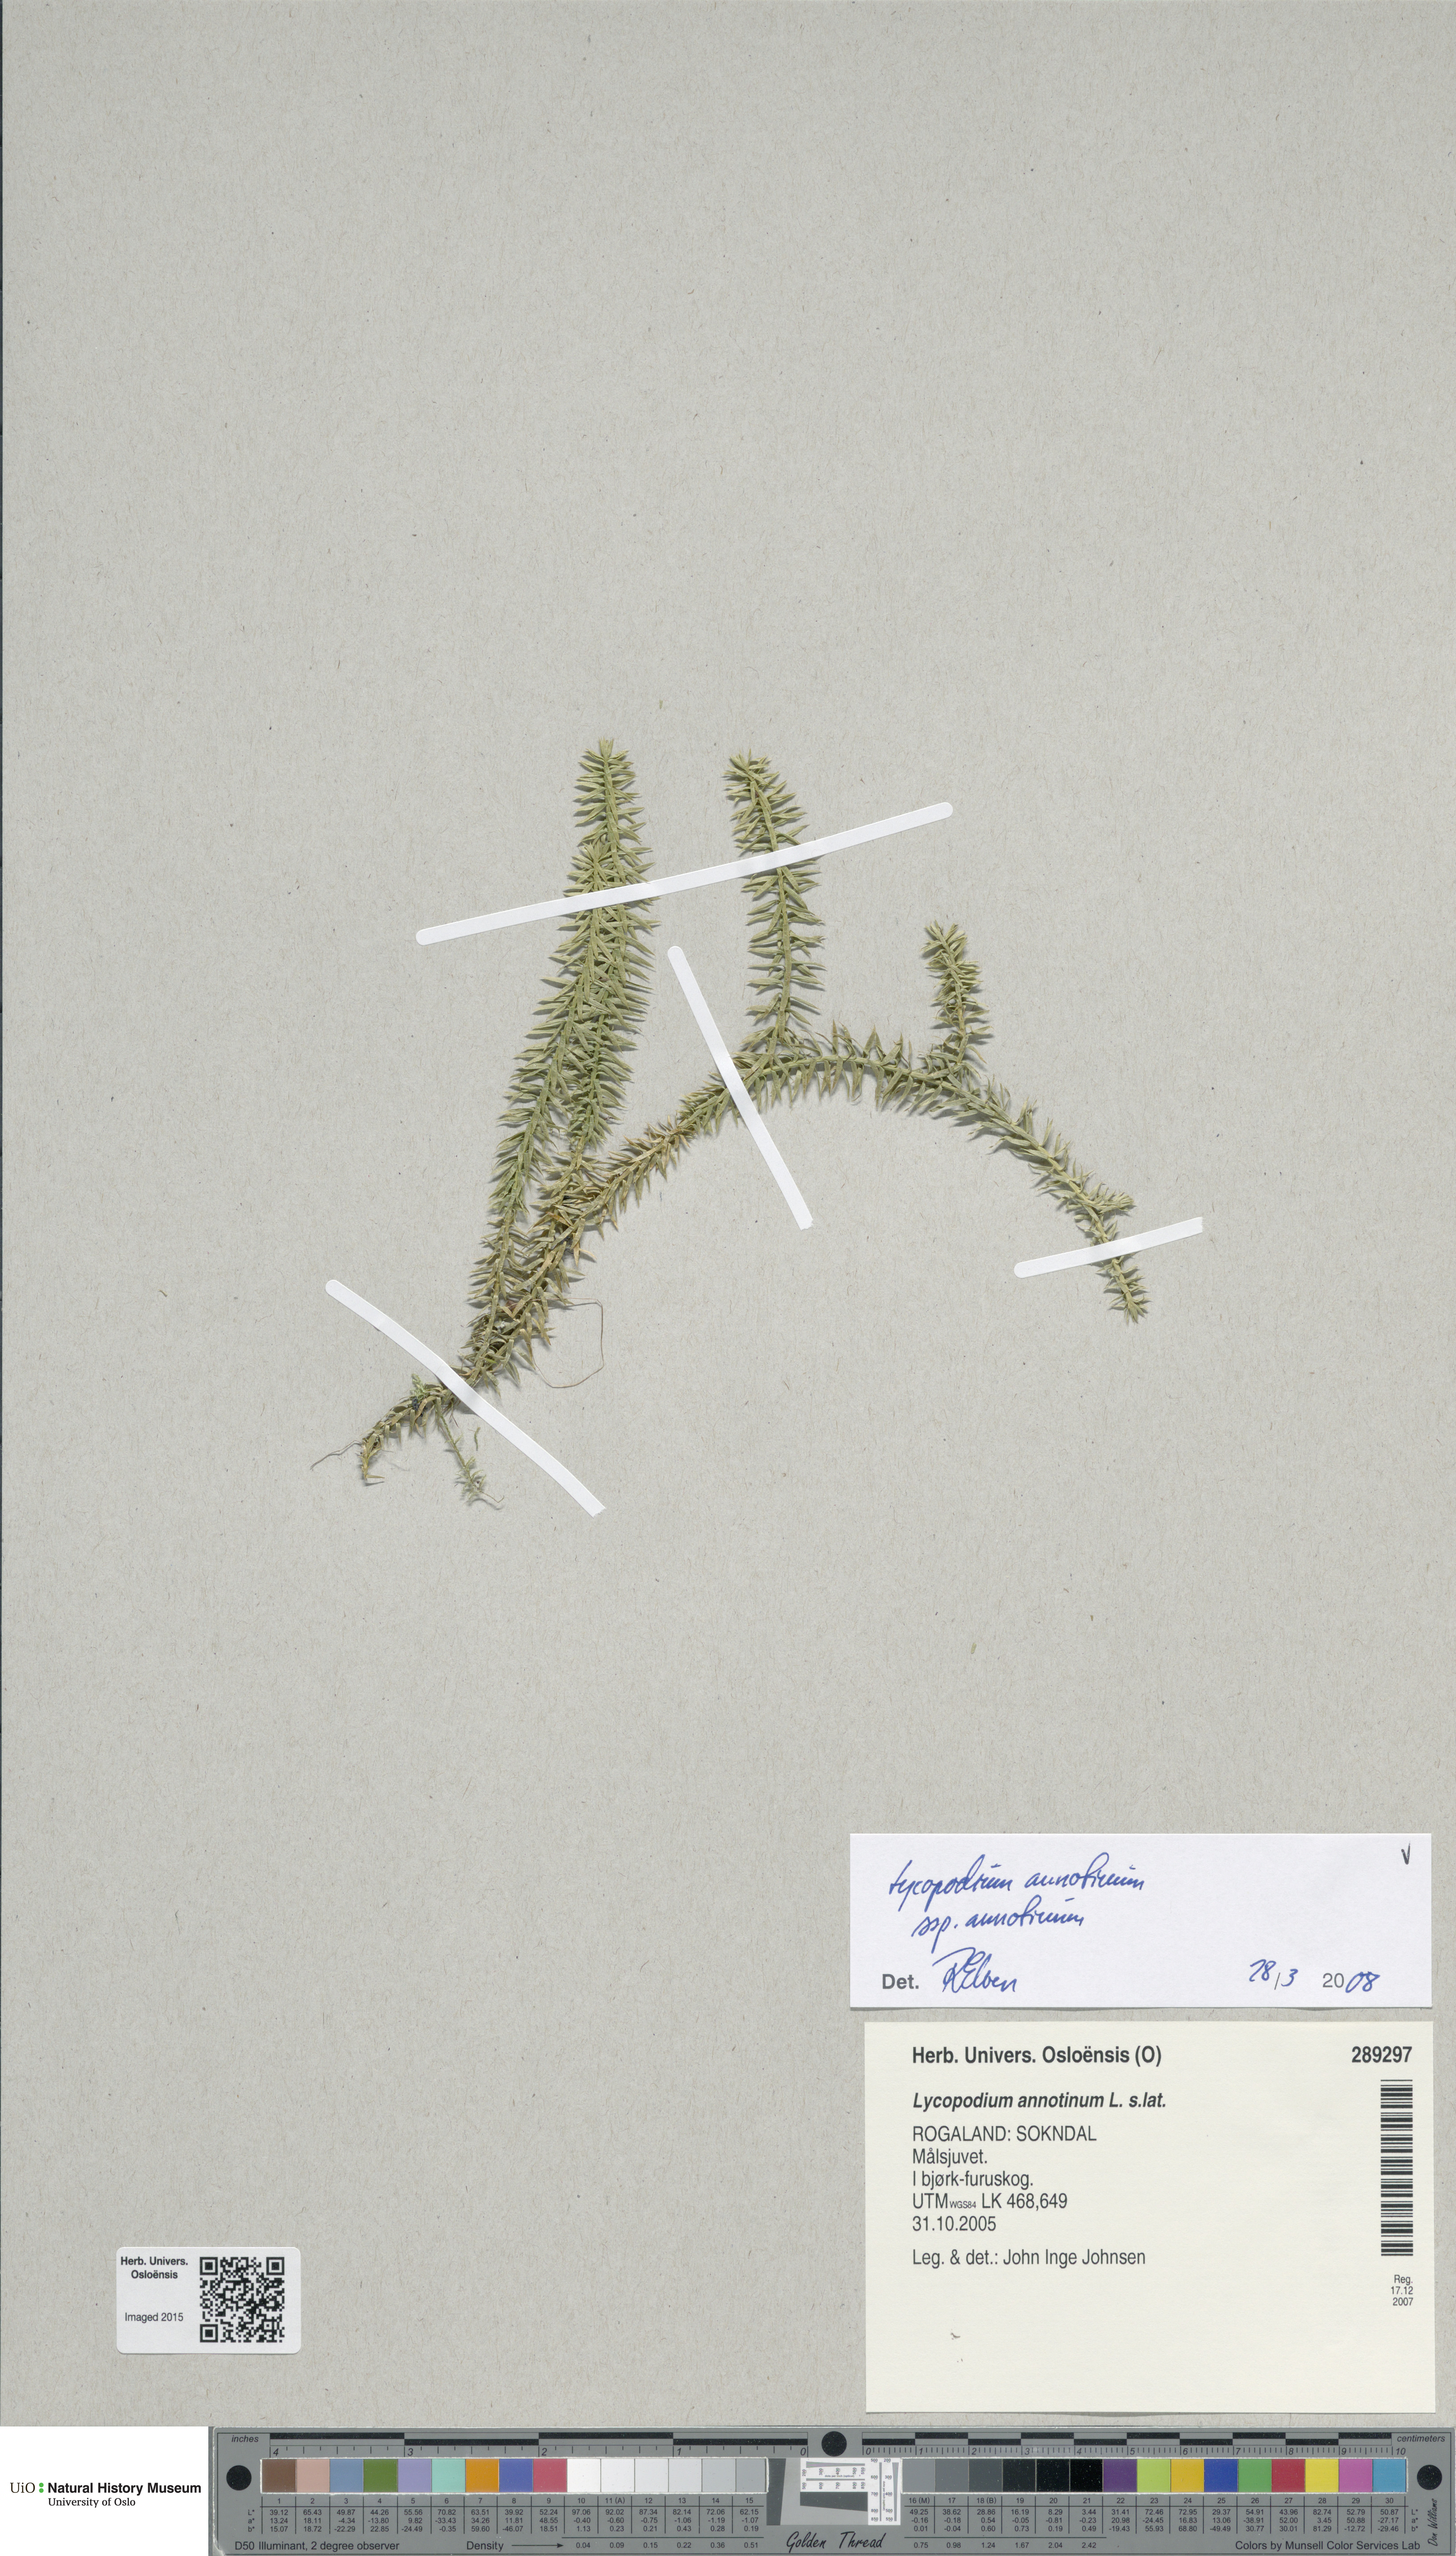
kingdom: Plantae
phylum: Tracheophyta
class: Lycopodiopsida
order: Lycopodiales
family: Lycopodiaceae
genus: Spinulum
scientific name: Spinulum annotinum
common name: Interrupted club-moss
